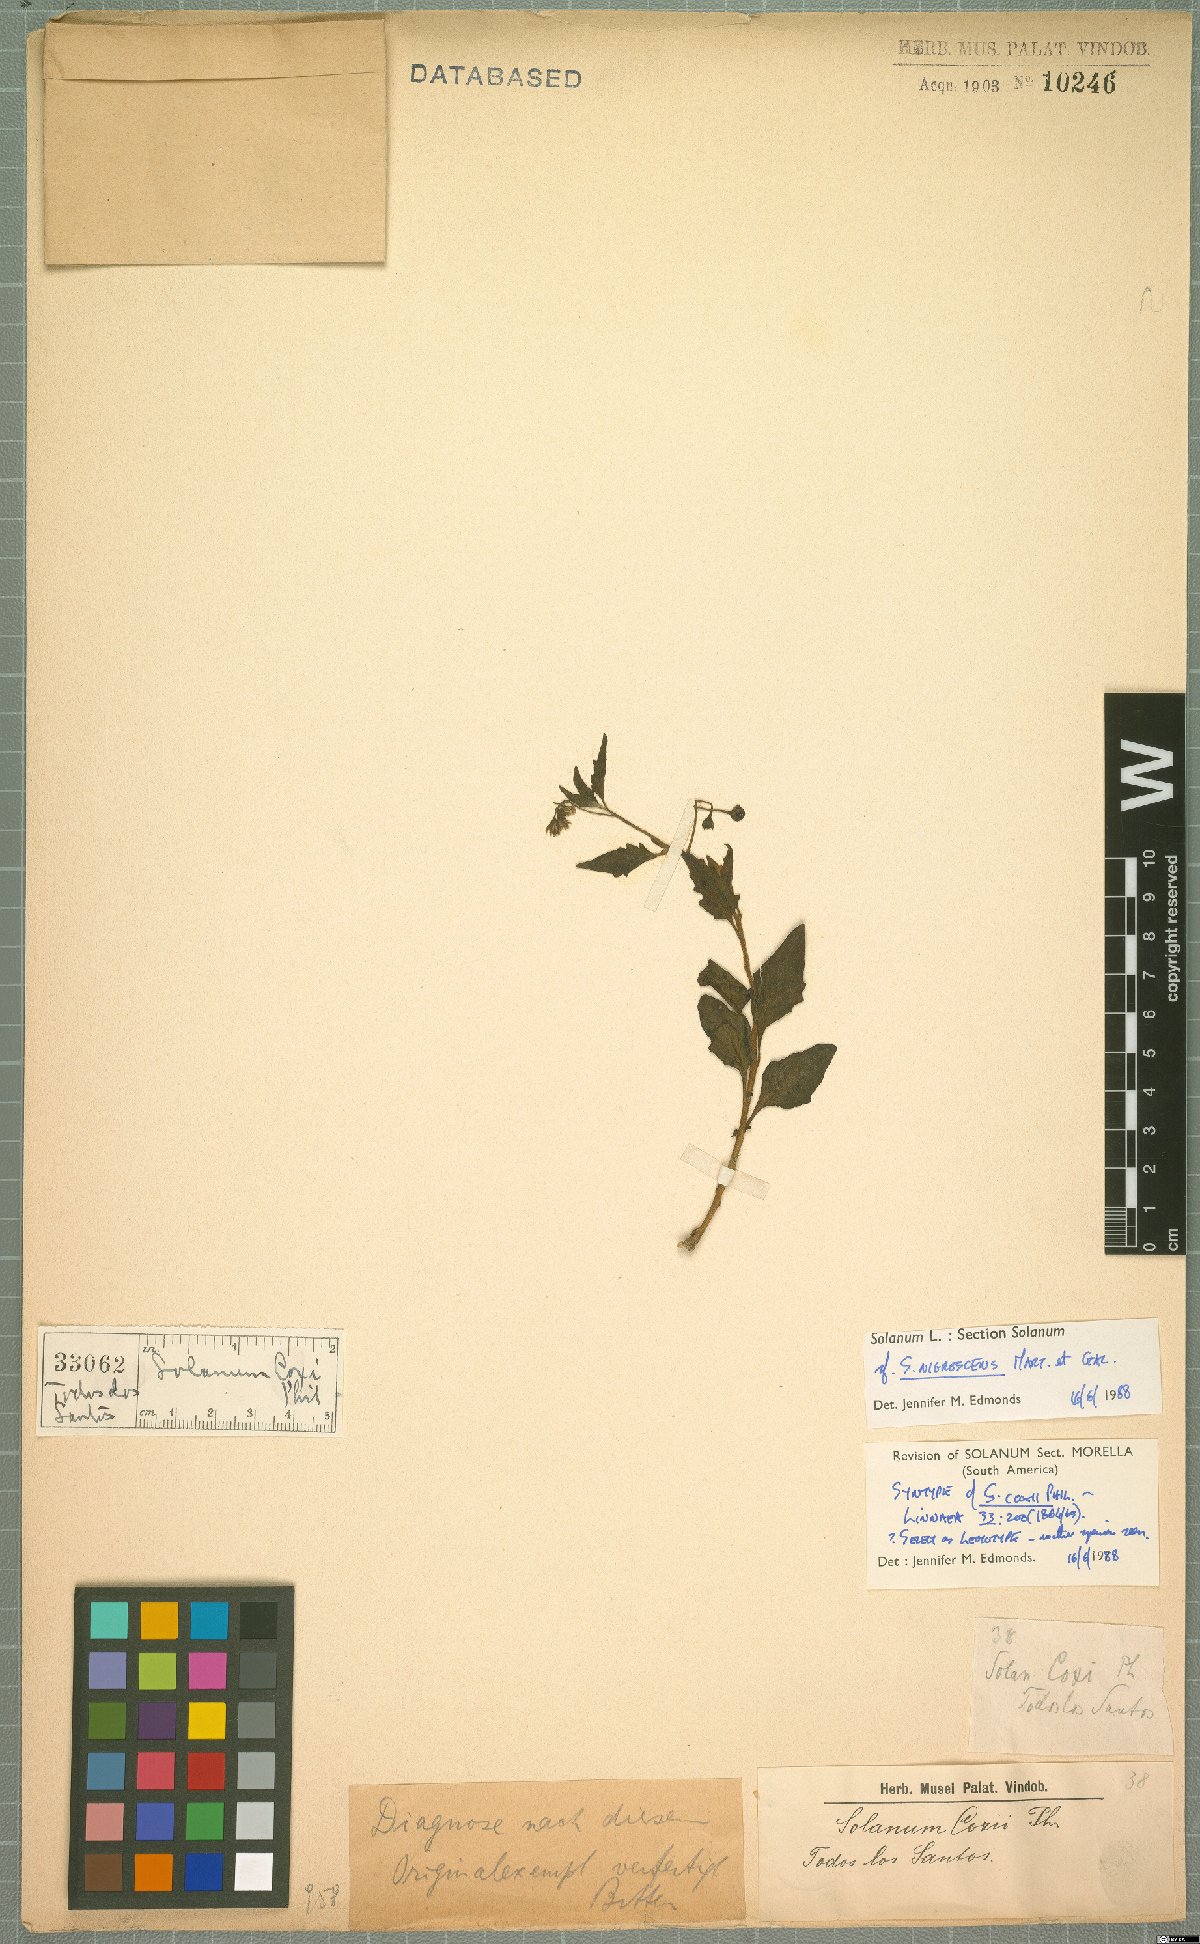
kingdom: Plantae
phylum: Tracheophyta
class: Magnoliopsida
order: Solanales
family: Solanaceae
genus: Solanum
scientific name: Solanum furcatum
